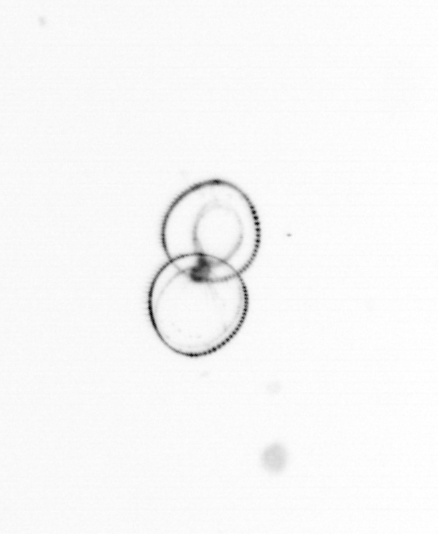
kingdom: Chromista
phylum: Myzozoa
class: Dinophyceae
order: Noctilucales
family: Noctilucaceae
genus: Noctiluca
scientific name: Noctiluca scintillans
